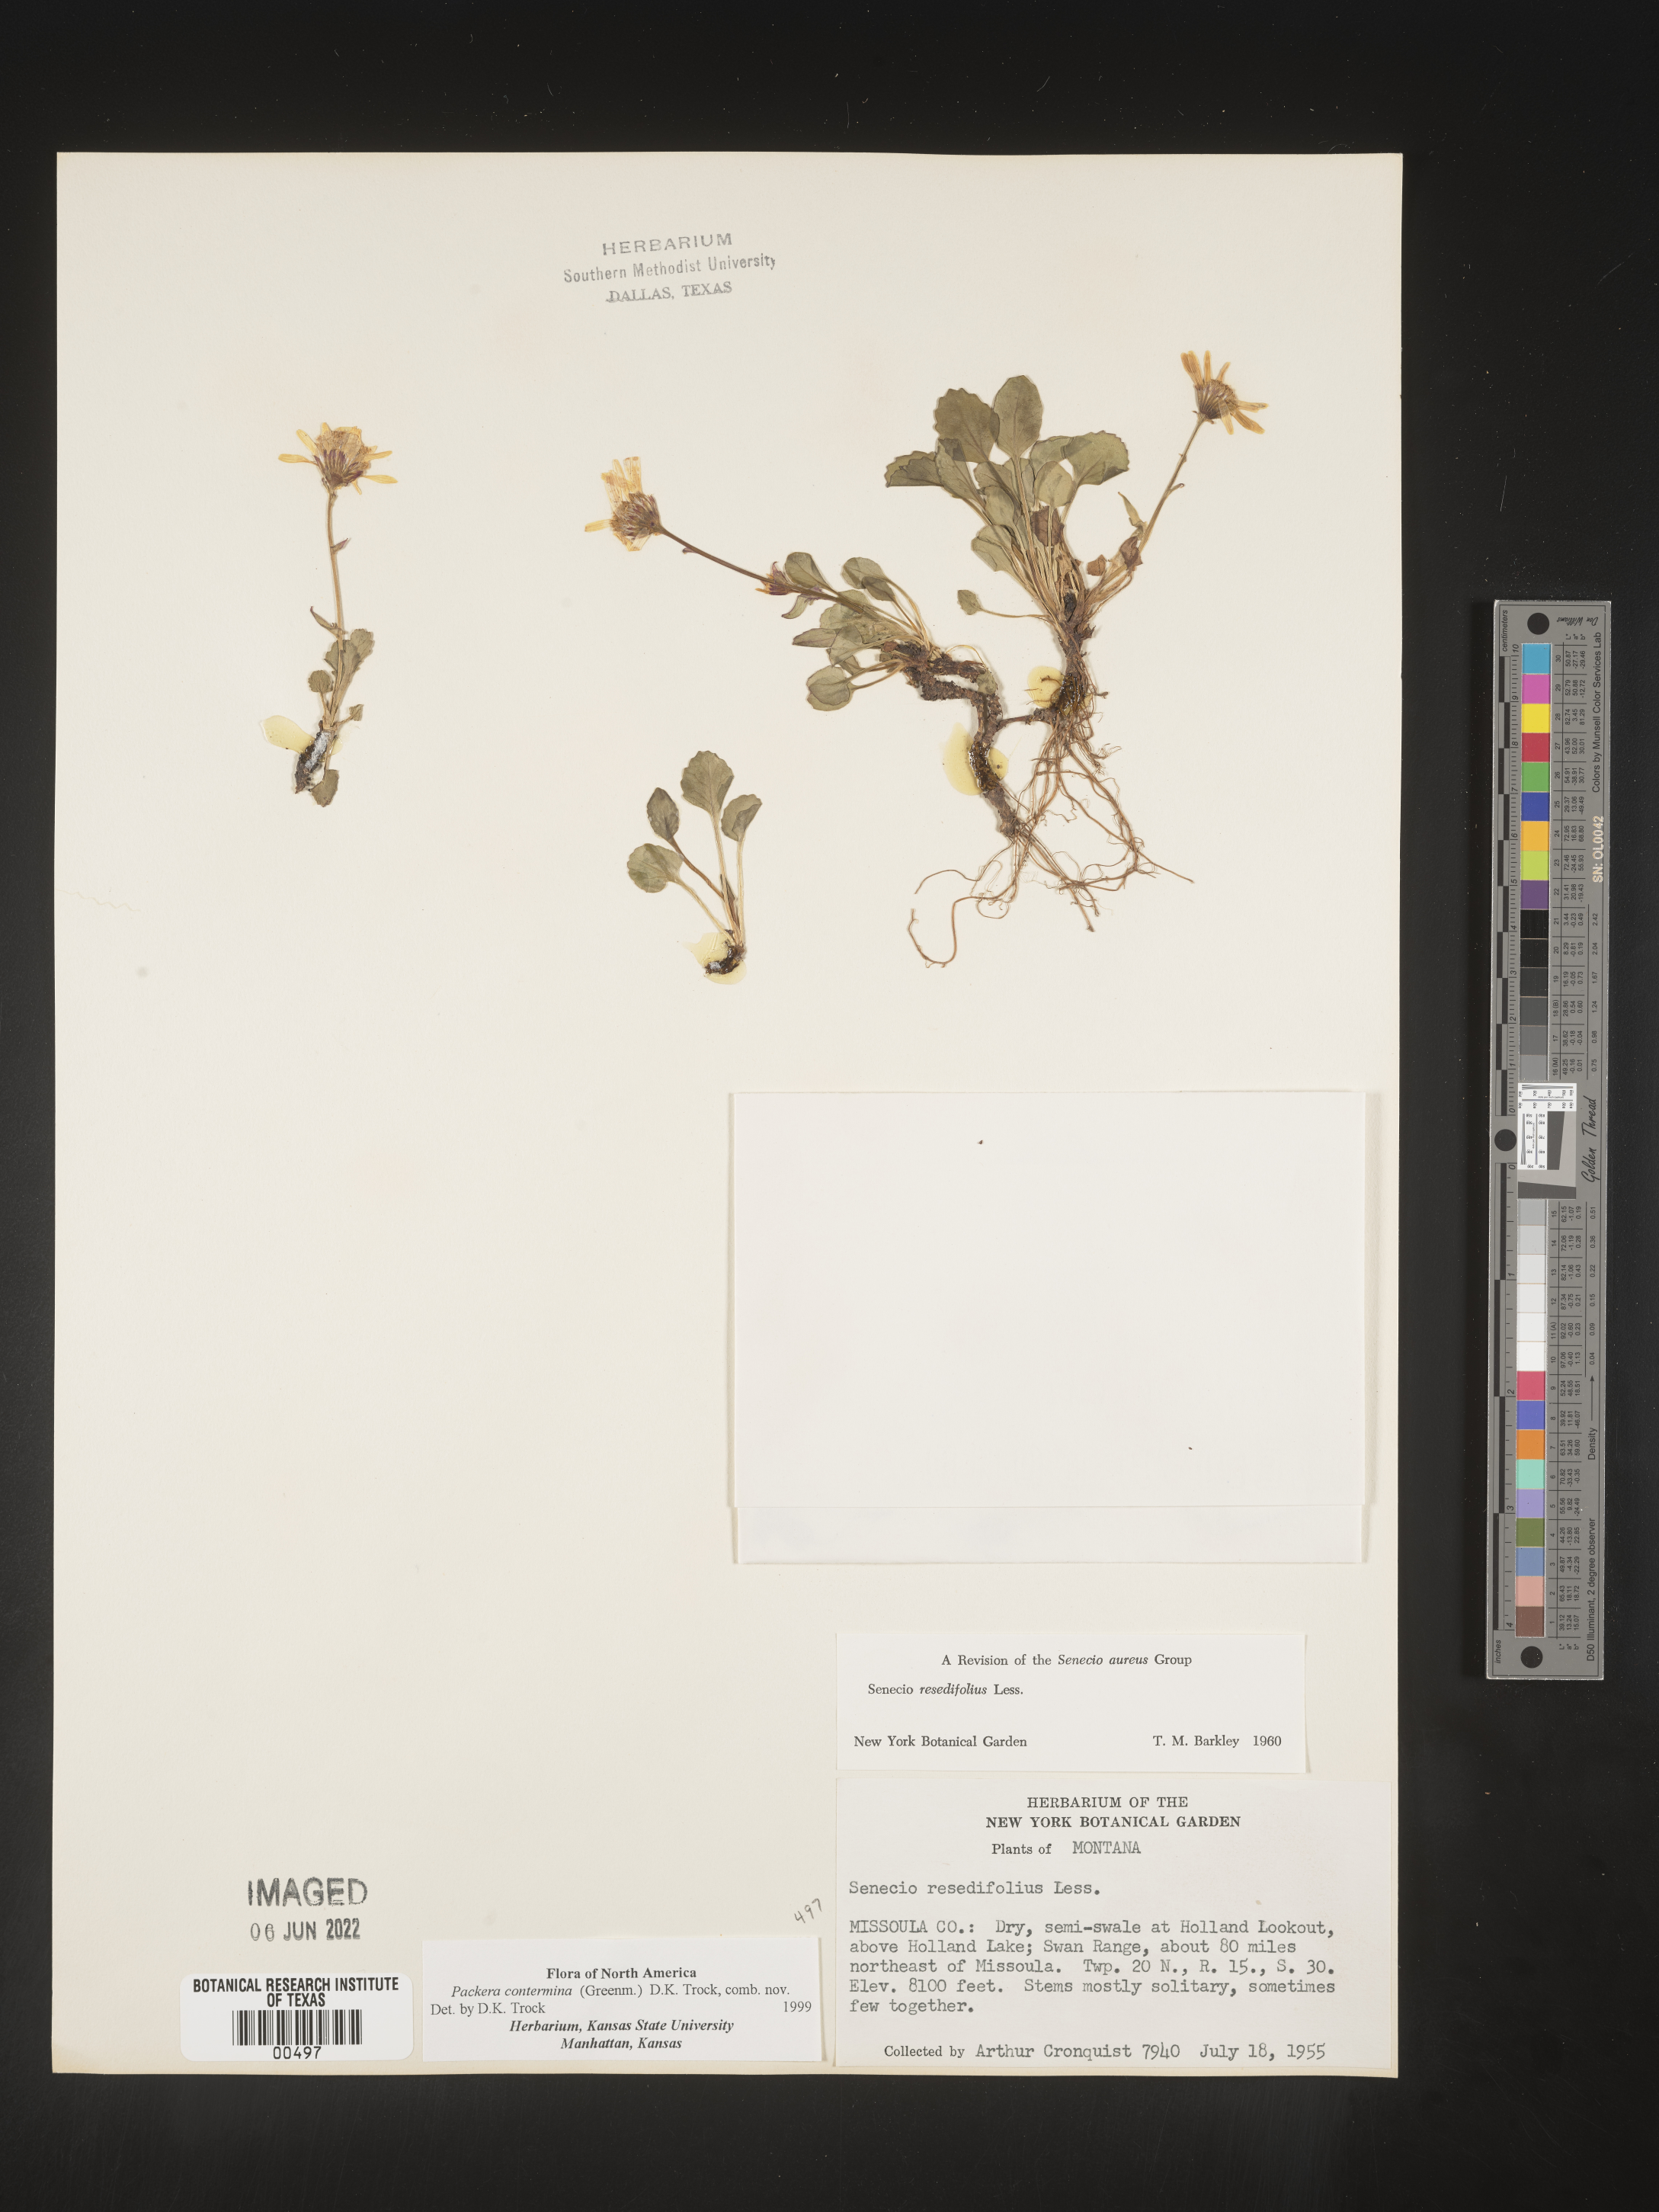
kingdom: Plantae
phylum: Tracheophyta
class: Magnoliopsida
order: Asterales
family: Asteraceae
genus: Packera
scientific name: Packera
